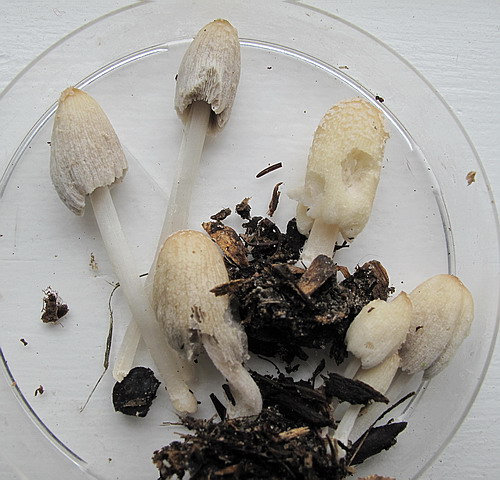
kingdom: Fungi
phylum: Basidiomycota
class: Agaricomycetes
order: Agaricales
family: Psathyrellaceae
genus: Coprinellus
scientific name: Coprinellus flocculosus
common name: fnugget blækhat
